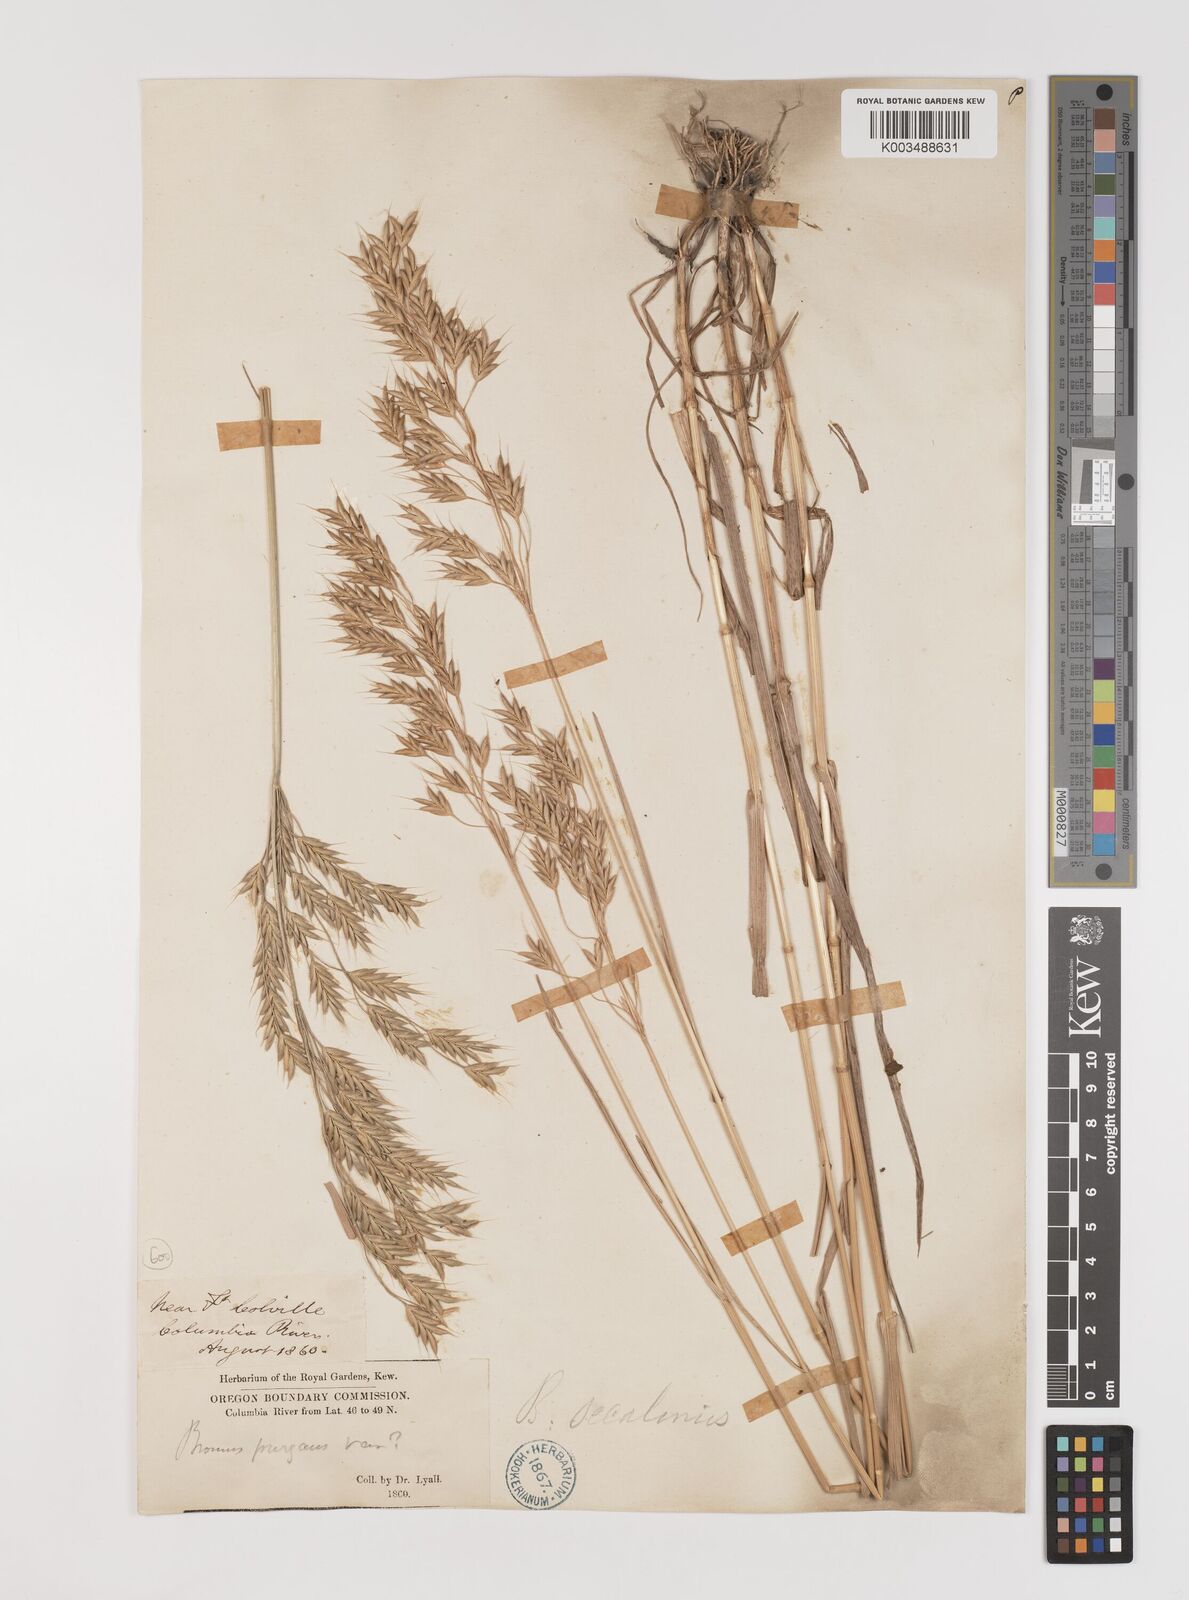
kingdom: Plantae
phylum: Tracheophyta
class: Liliopsida
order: Poales
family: Poaceae
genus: Bromus
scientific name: Bromus secalinus
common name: Rye brome
